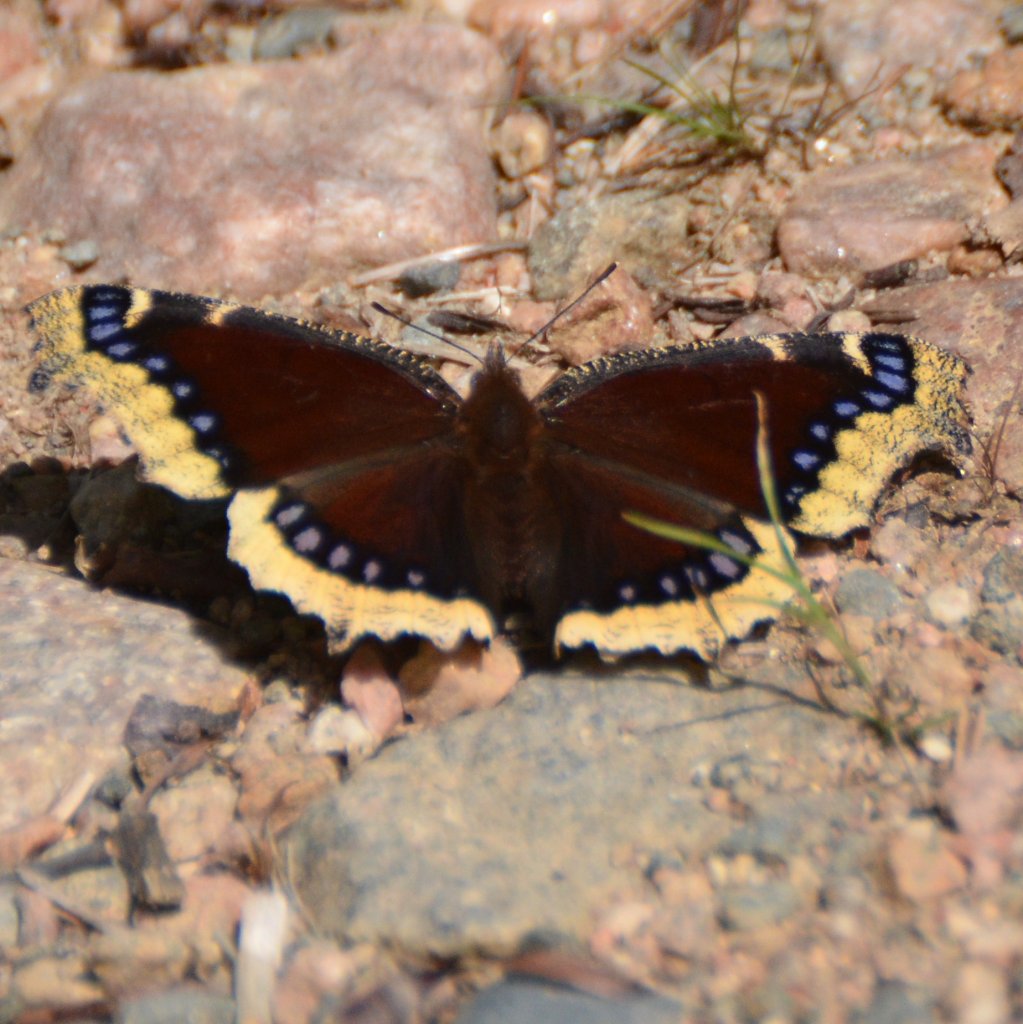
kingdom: Animalia
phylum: Arthropoda
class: Insecta
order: Lepidoptera
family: Nymphalidae
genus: Nymphalis
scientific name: Nymphalis antiopa
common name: Mourning Cloak
